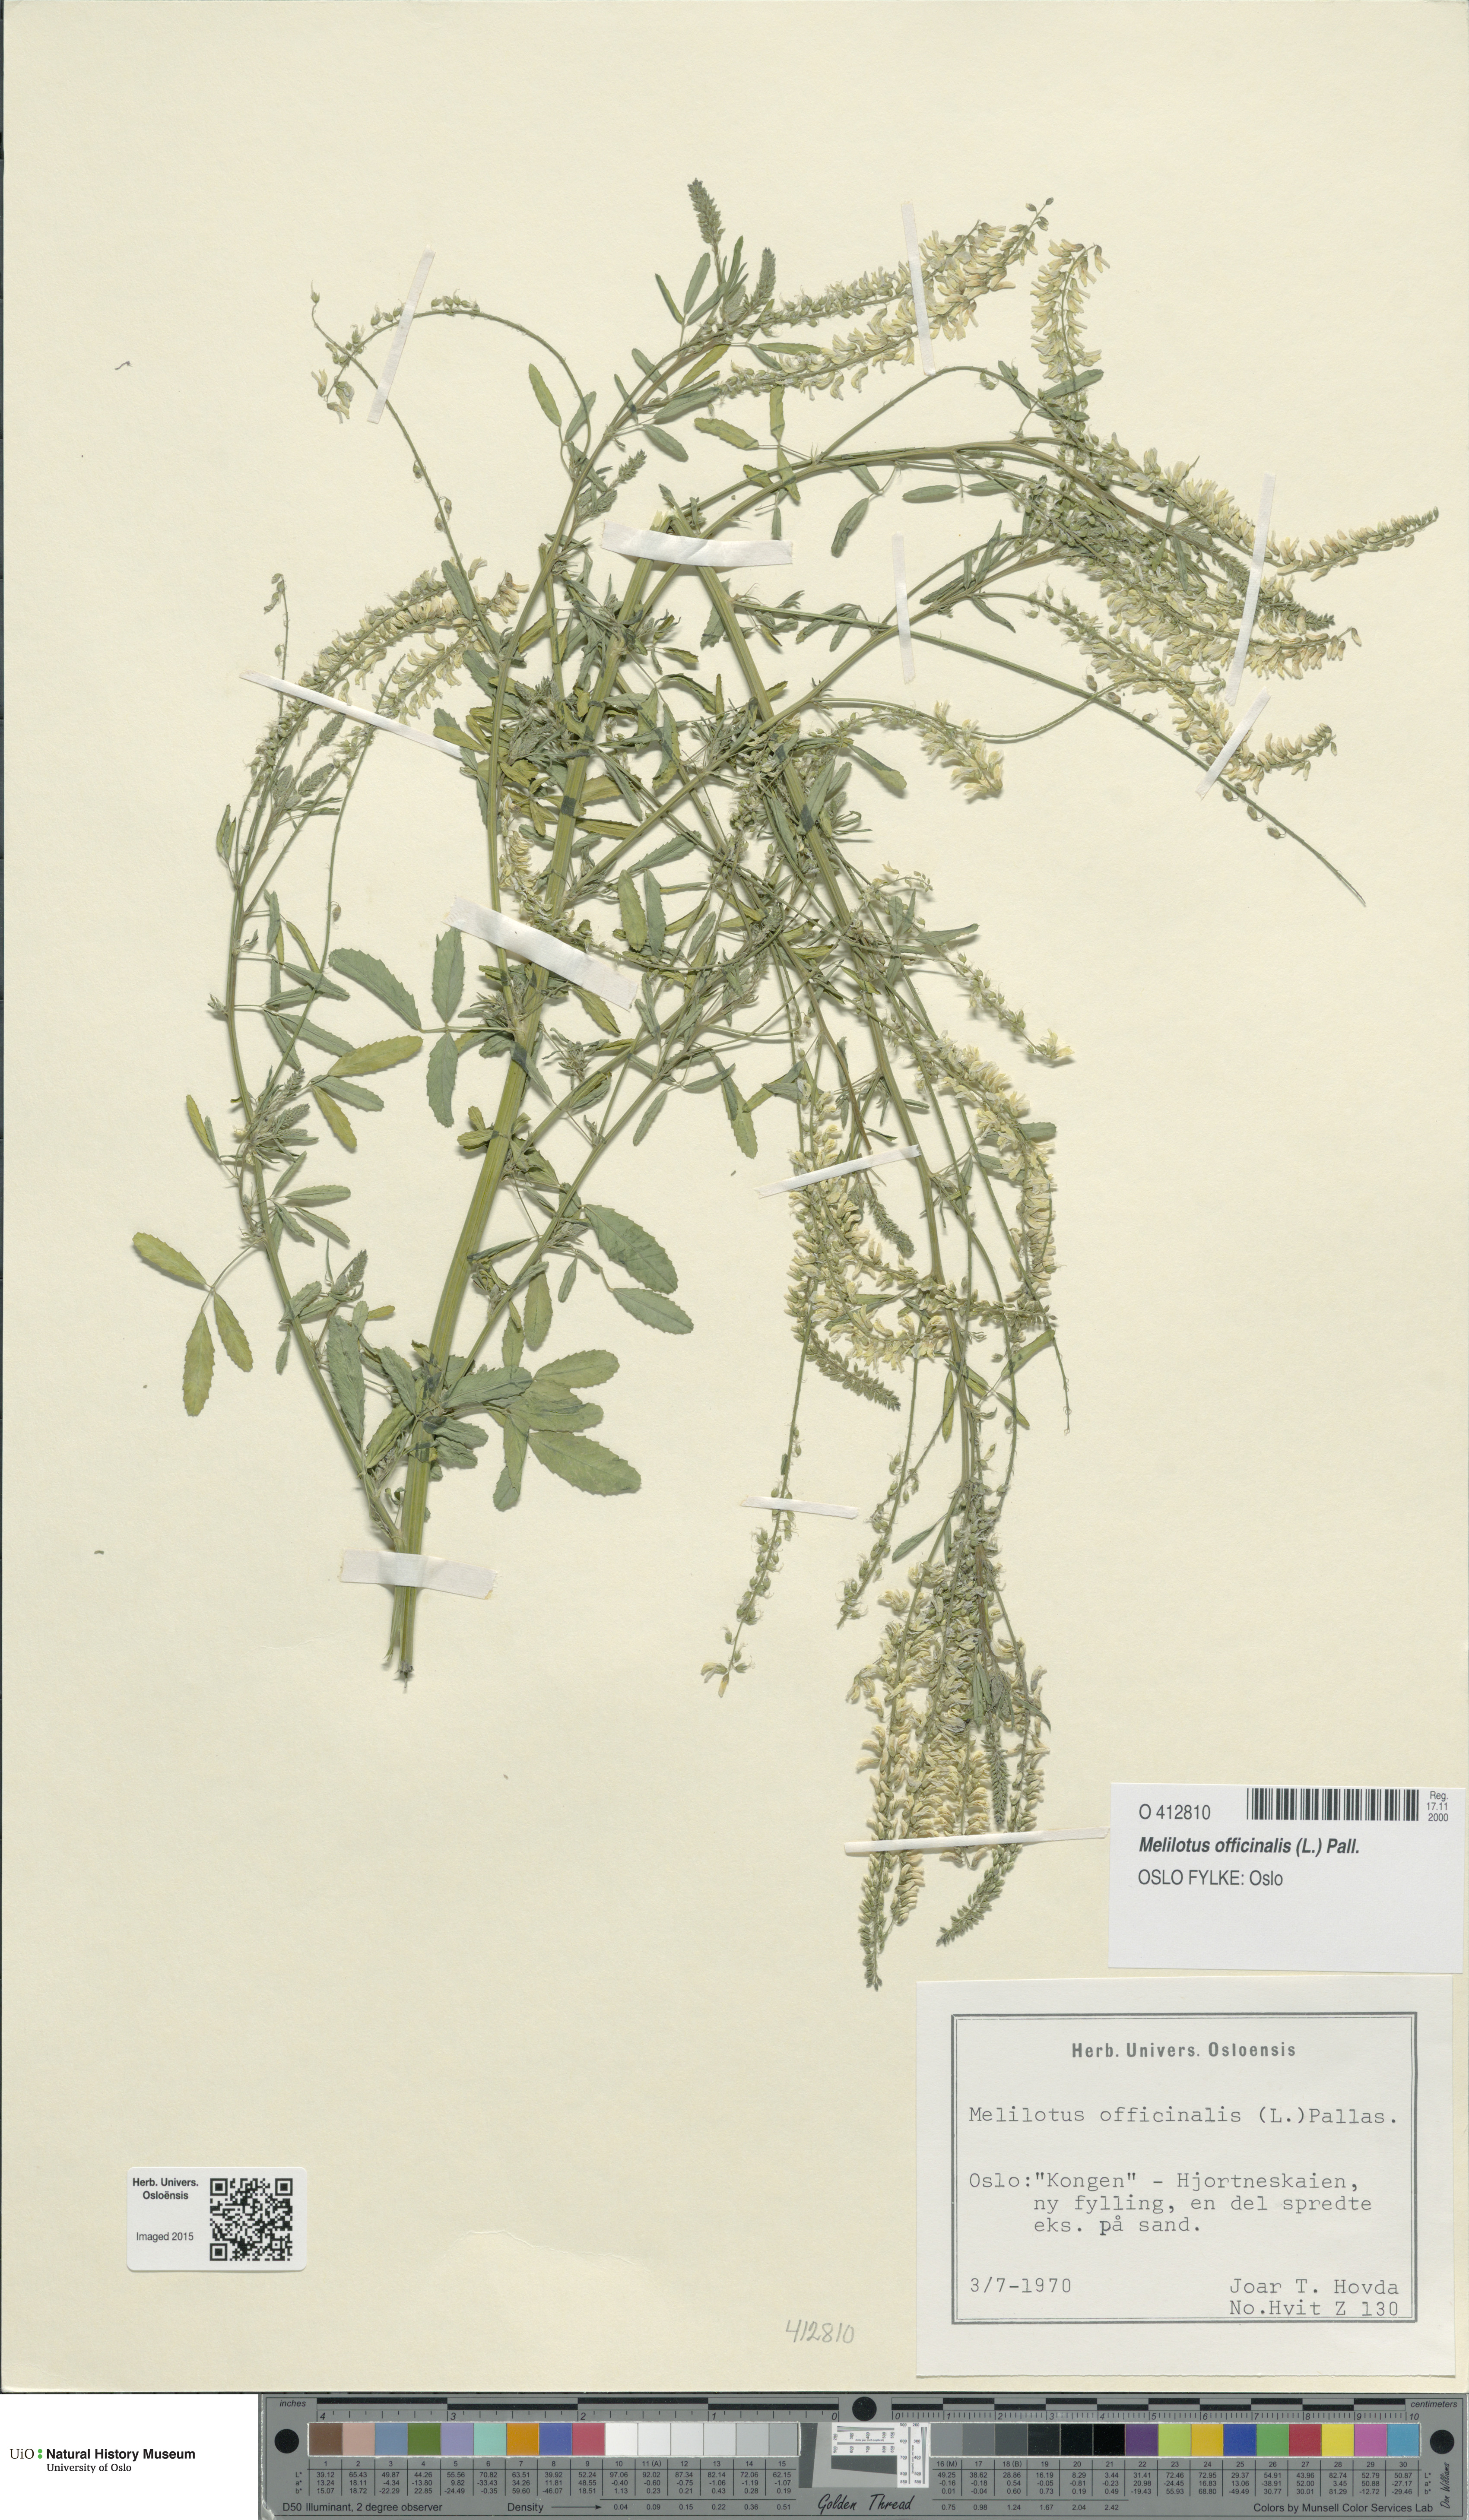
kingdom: Plantae
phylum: Tracheophyta
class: Magnoliopsida
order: Fabales
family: Fabaceae
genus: Melilotus
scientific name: Melilotus officinalis
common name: Sweetclover
